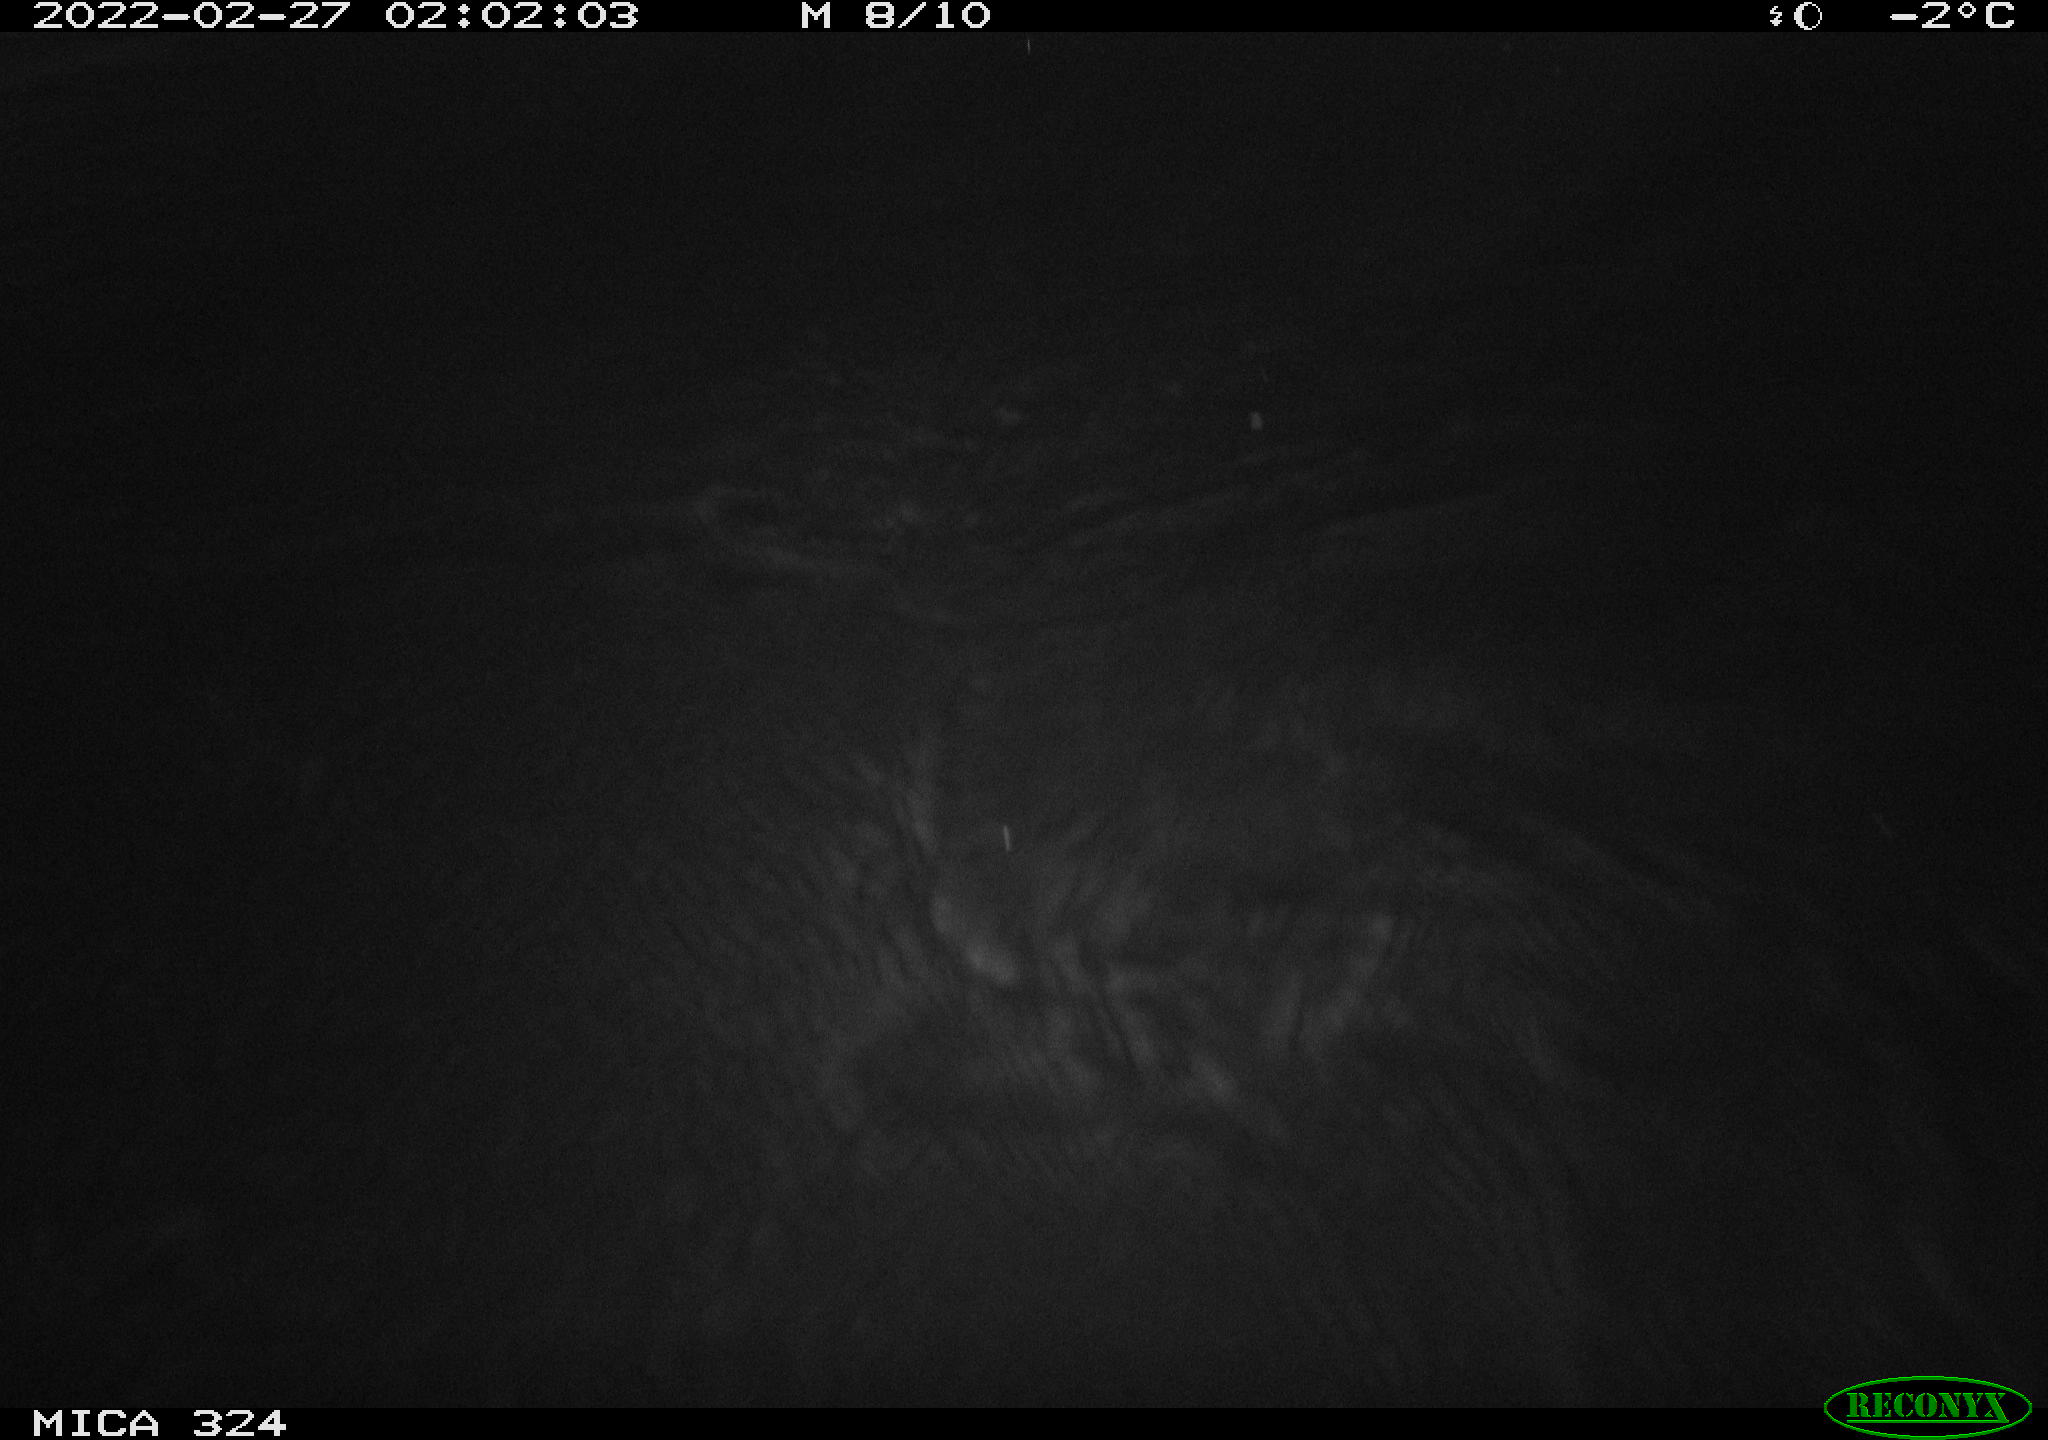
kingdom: Animalia
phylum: Chordata
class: Mammalia
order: Rodentia
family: Cricetidae
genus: Ondatra
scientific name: Ondatra zibethicus
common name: Muskrat
